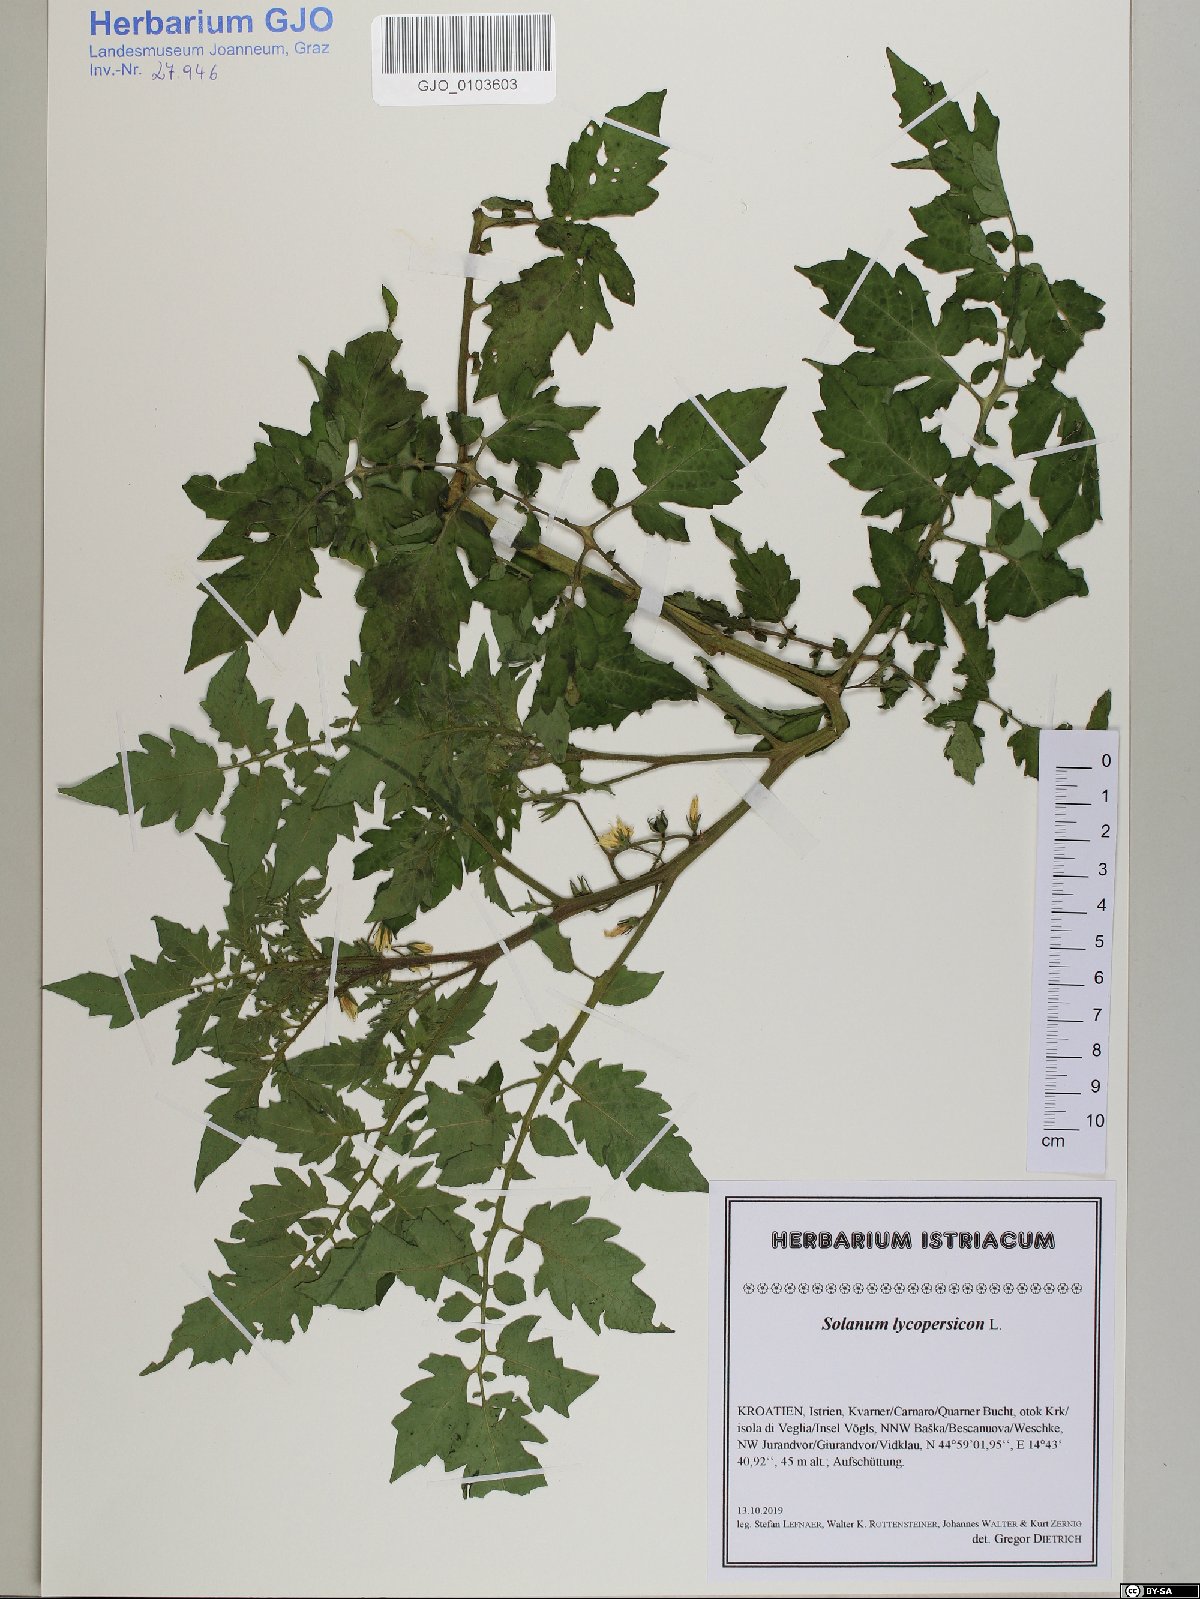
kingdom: Plantae
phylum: Tracheophyta
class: Magnoliopsida
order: Solanales
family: Solanaceae
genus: Solanum
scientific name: Solanum lycopersicum
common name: Garden tomato
